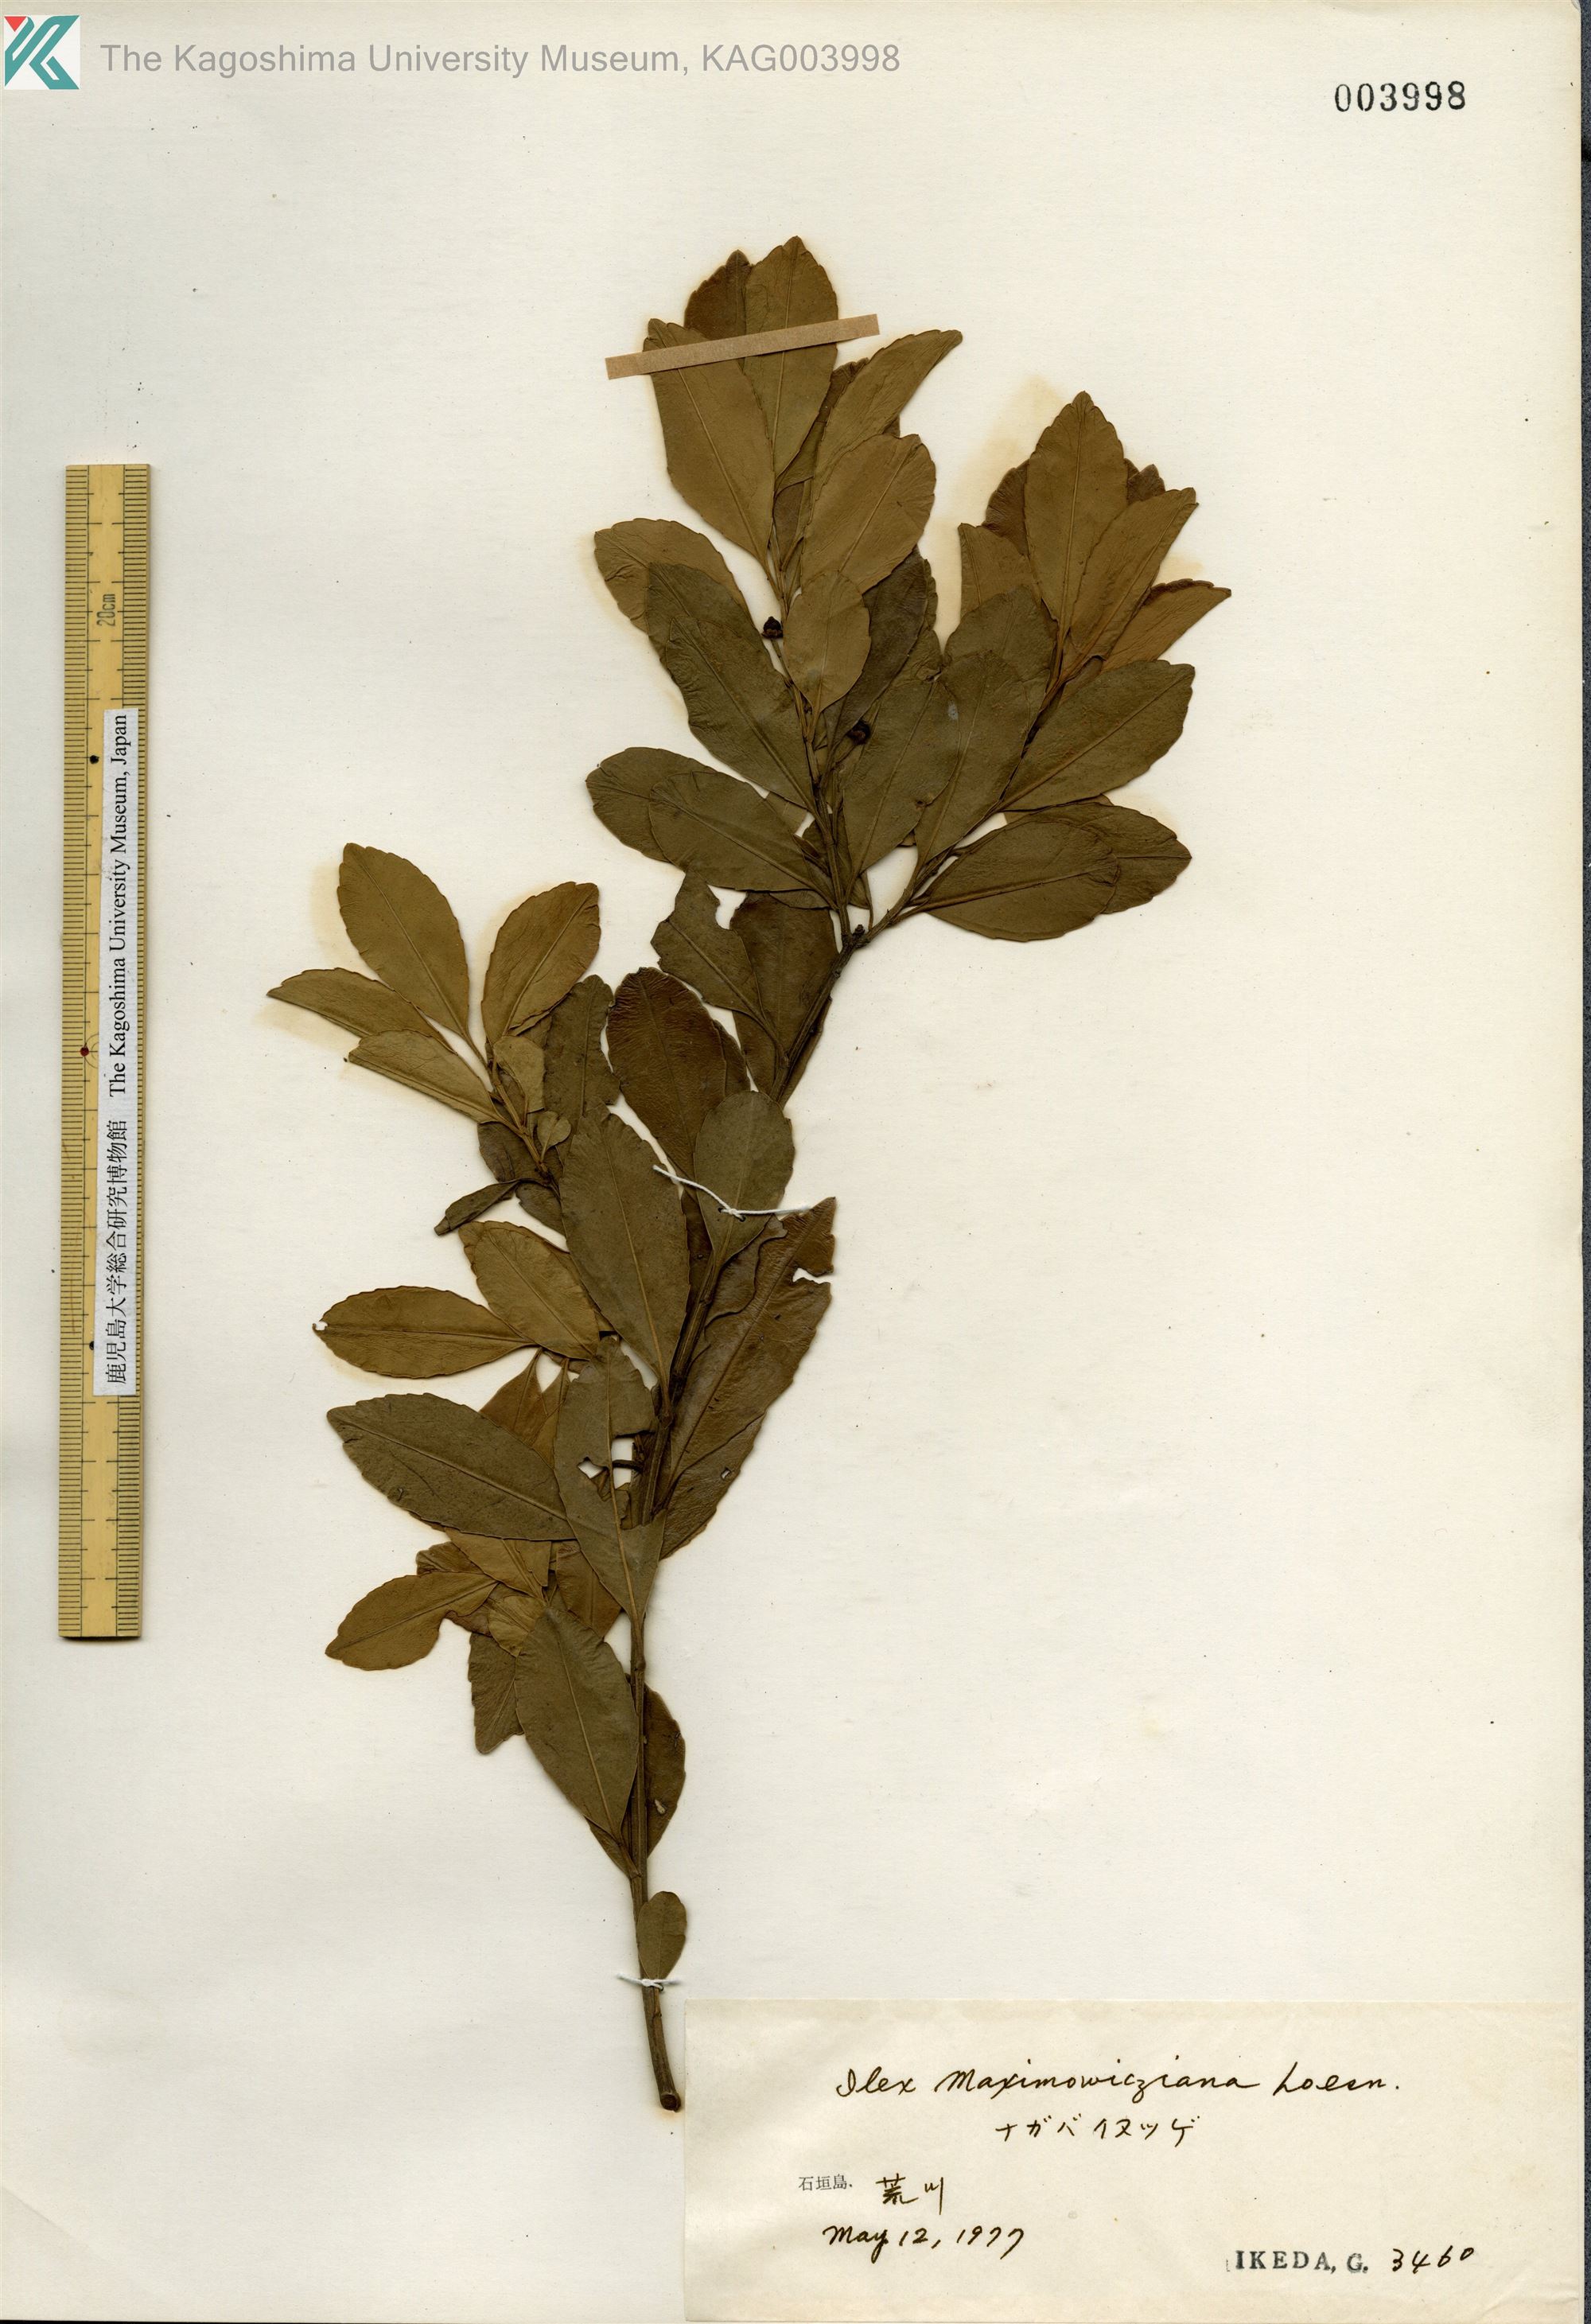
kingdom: Plantae
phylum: Tracheophyta
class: Magnoliopsida
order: Aquifoliales
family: Aquifoliaceae
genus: Ilex
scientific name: Ilex maximowicziana
